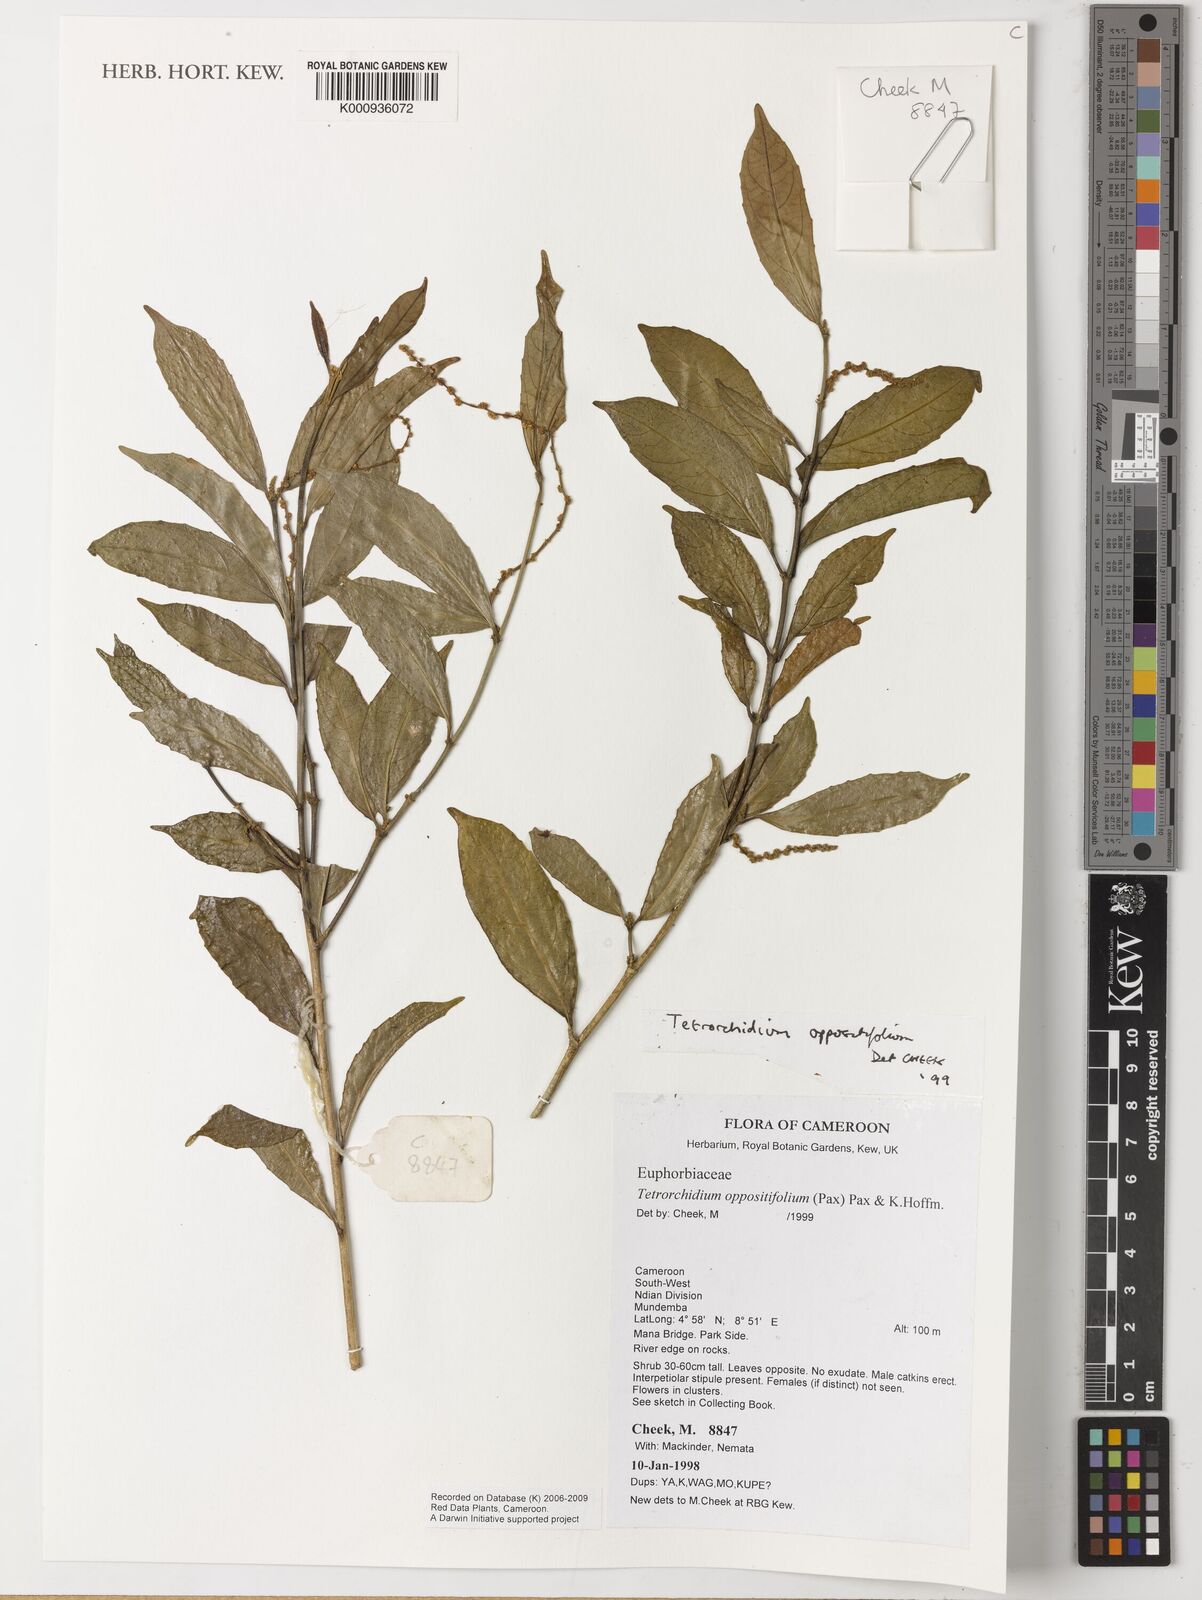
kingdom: Plantae
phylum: Tracheophyta
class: Magnoliopsida
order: Malpighiales
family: Euphorbiaceae
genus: Tetrorchidium
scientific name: Tetrorchidium oppositifolium
